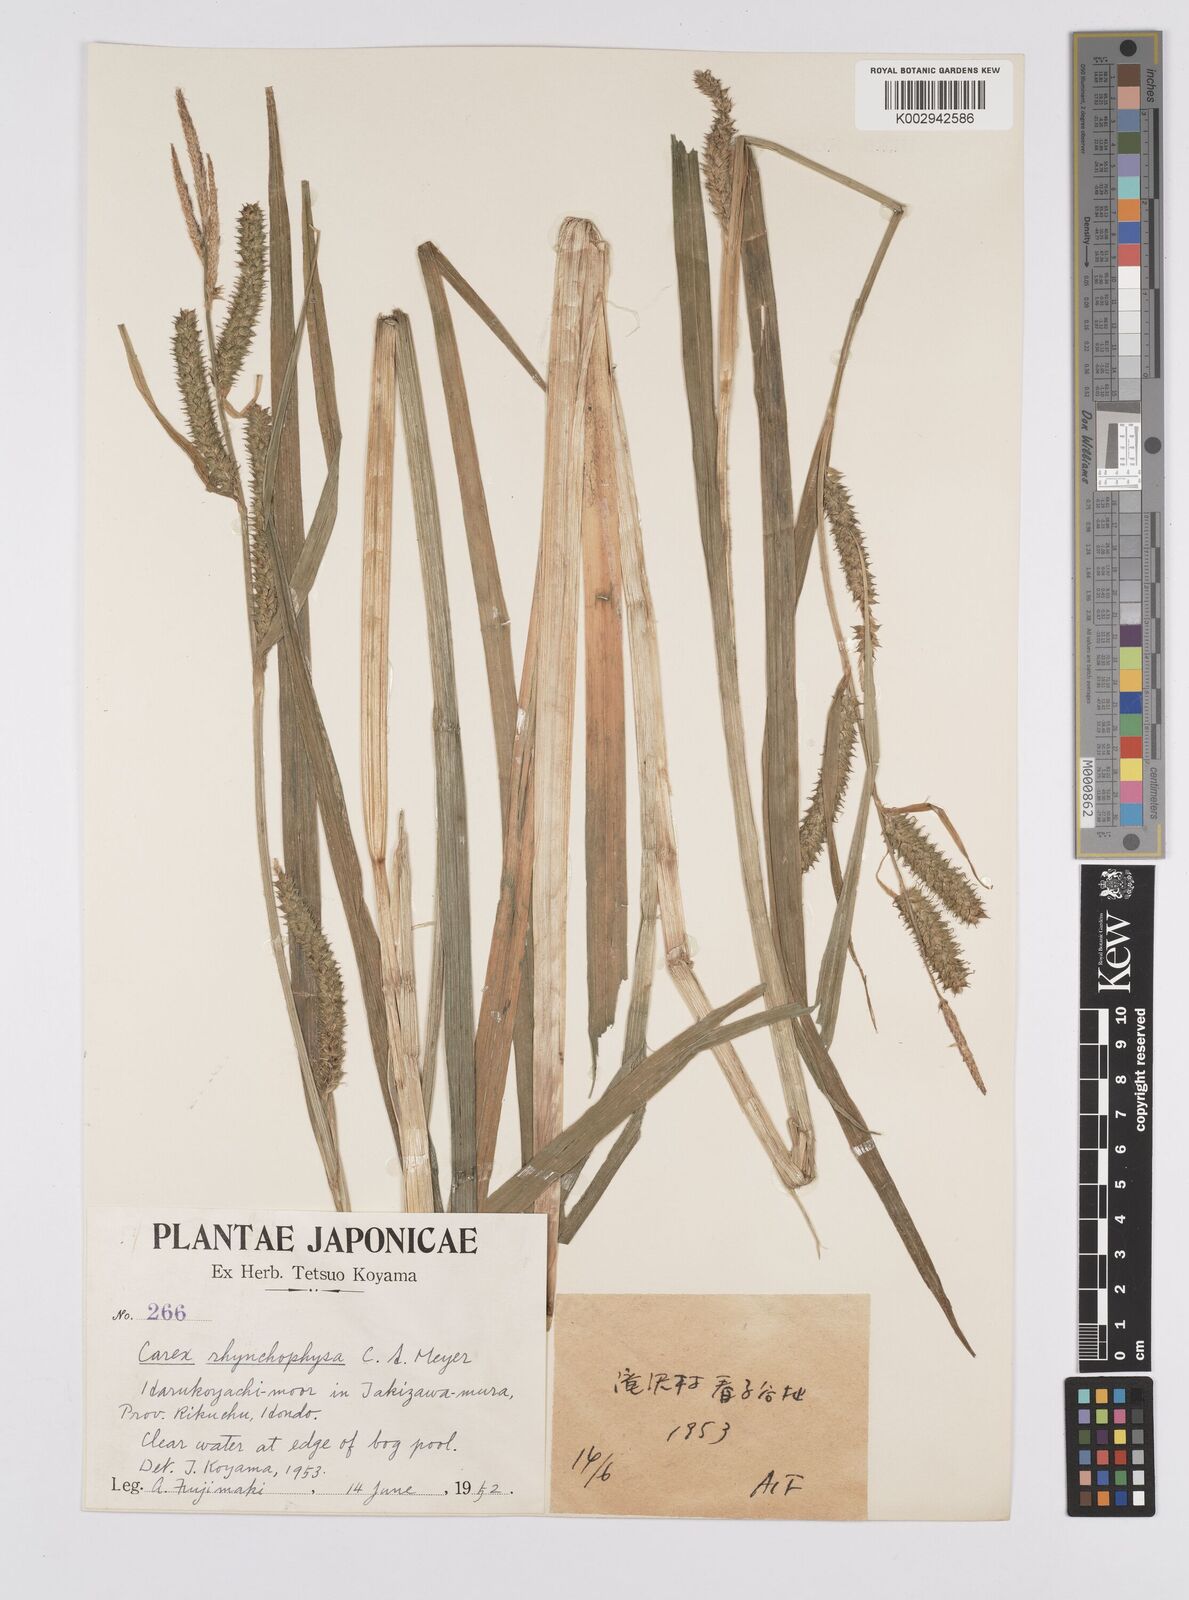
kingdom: Plantae
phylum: Tracheophyta
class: Liliopsida
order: Poales
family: Cyperaceae
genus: Carex
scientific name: Carex utriculata
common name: Beaked sedge
